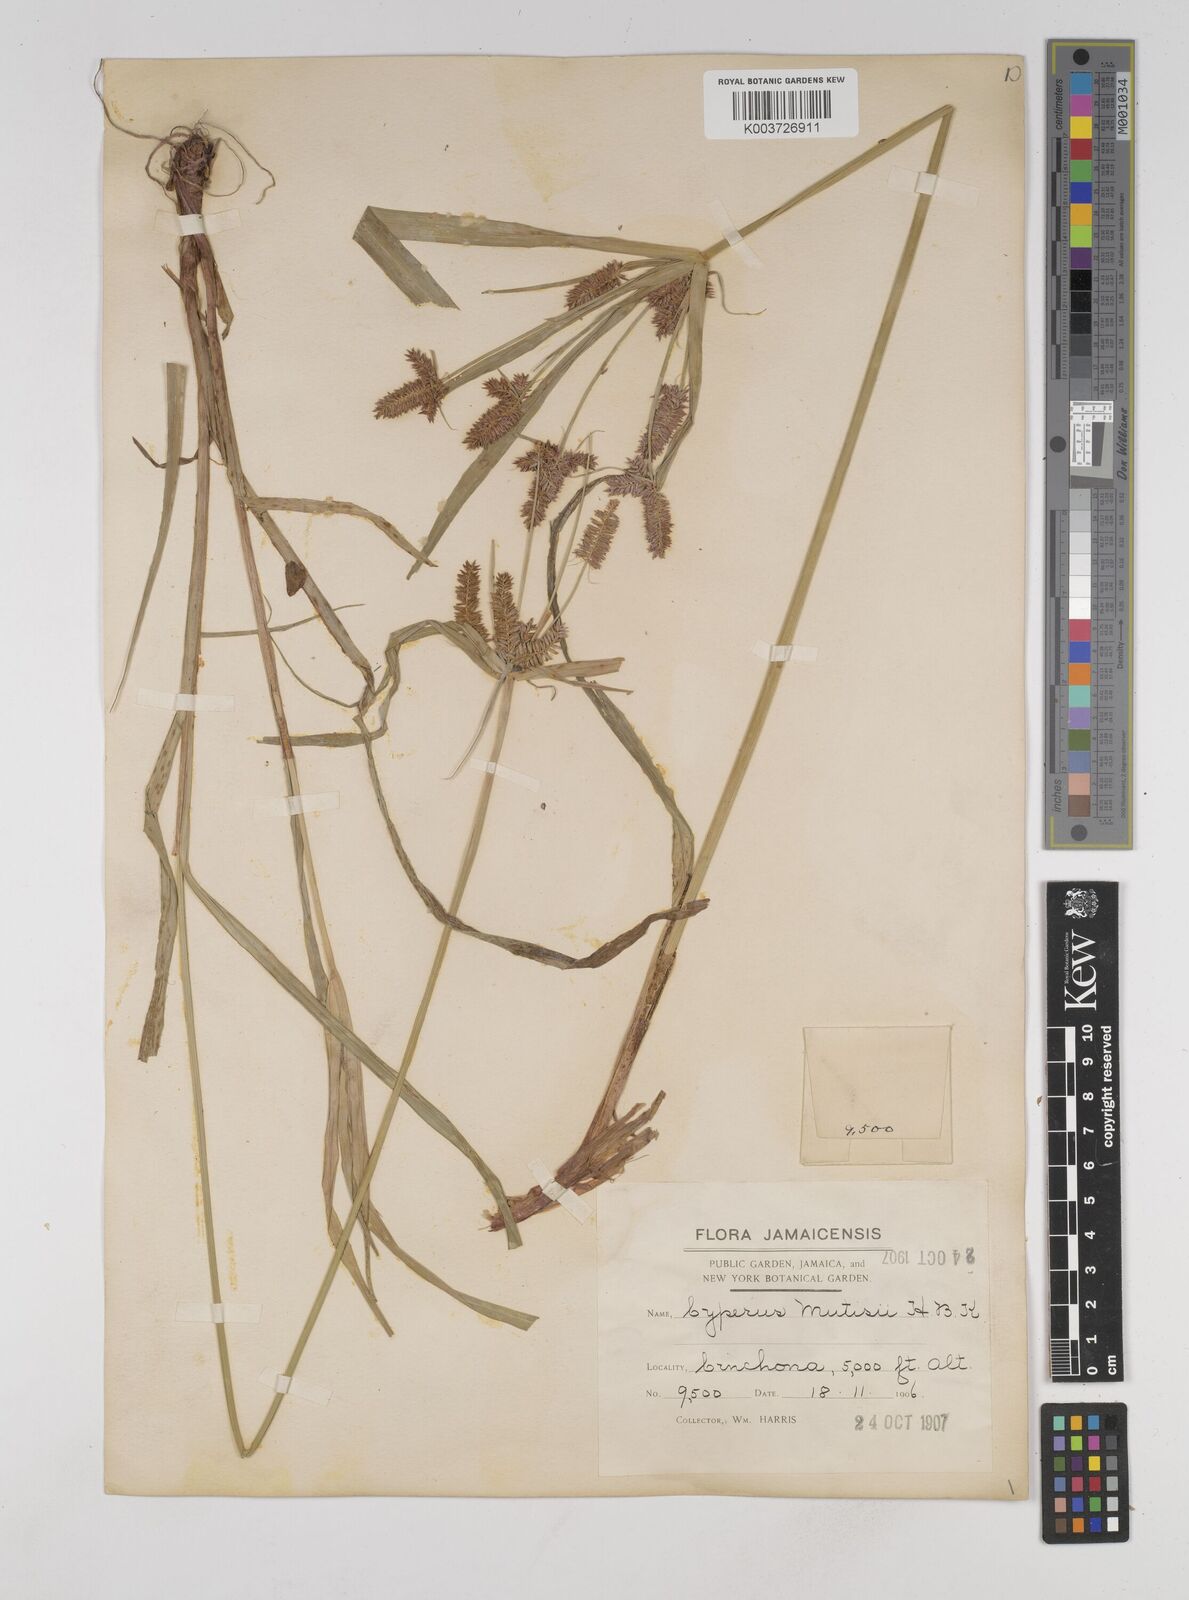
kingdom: Plantae
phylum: Tracheophyta
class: Liliopsida
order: Poales
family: Cyperaceae
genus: Cyperus
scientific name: Cyperus
